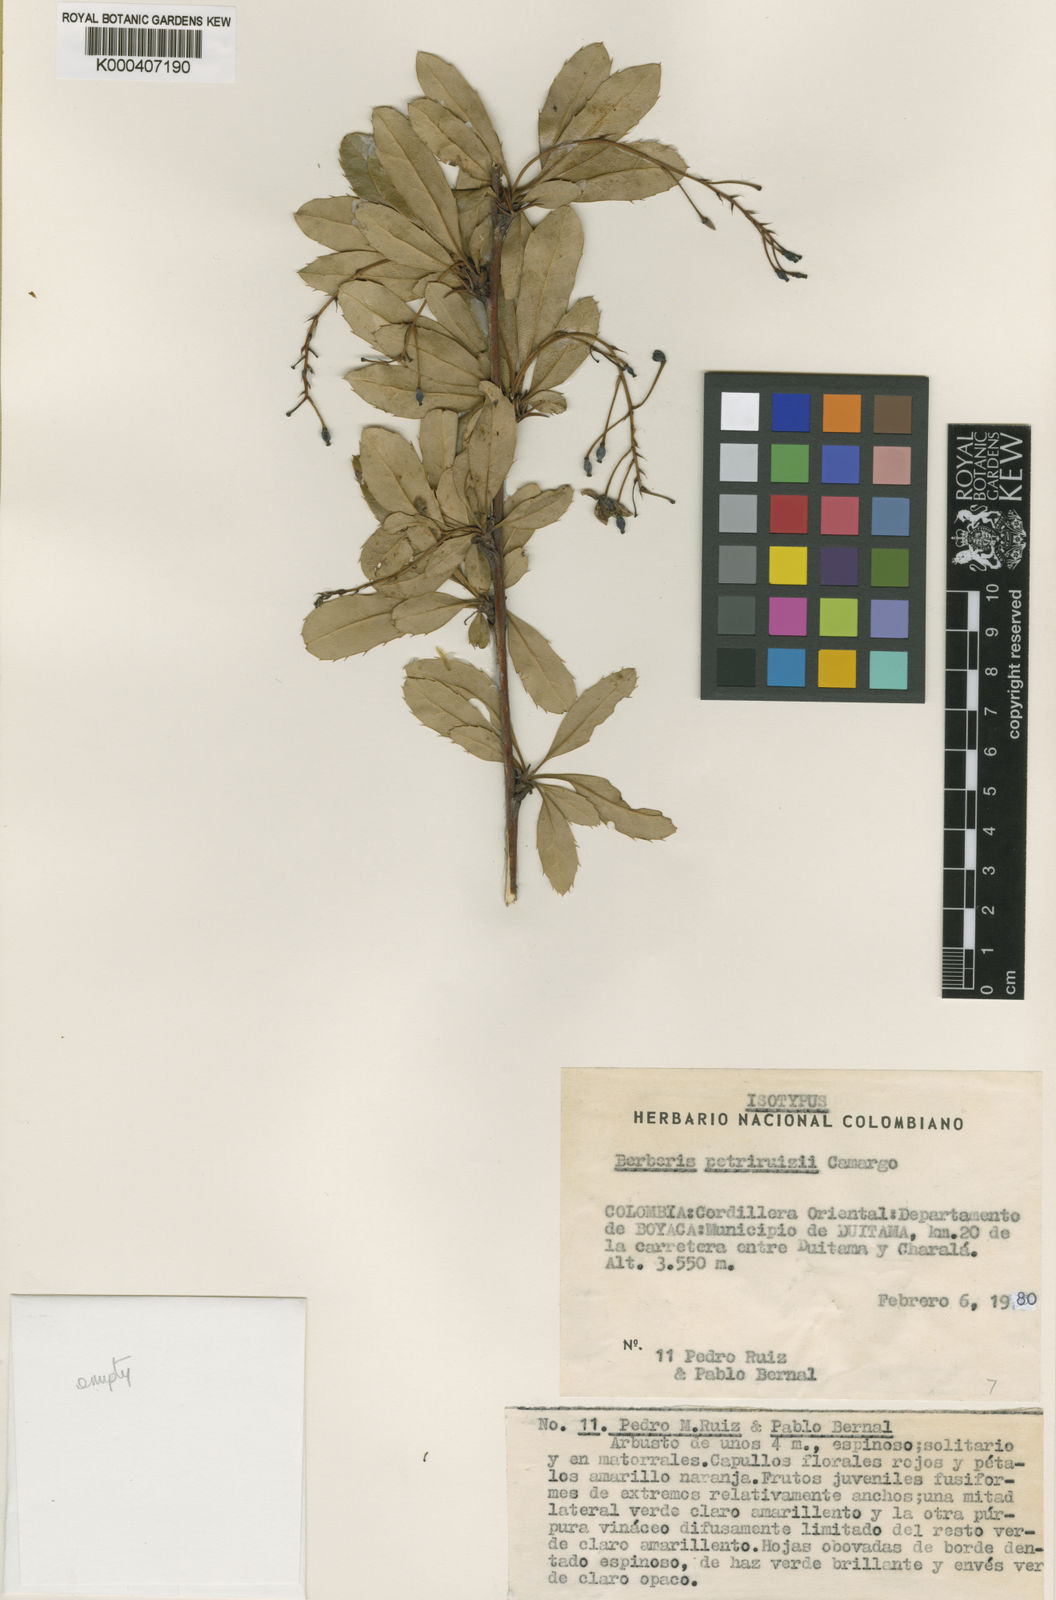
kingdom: Plantae
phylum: Tracheophyta
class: Magnoliopsida
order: Ranunculales
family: Berberidaceae
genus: Berberis
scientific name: Berberis petriruizii
